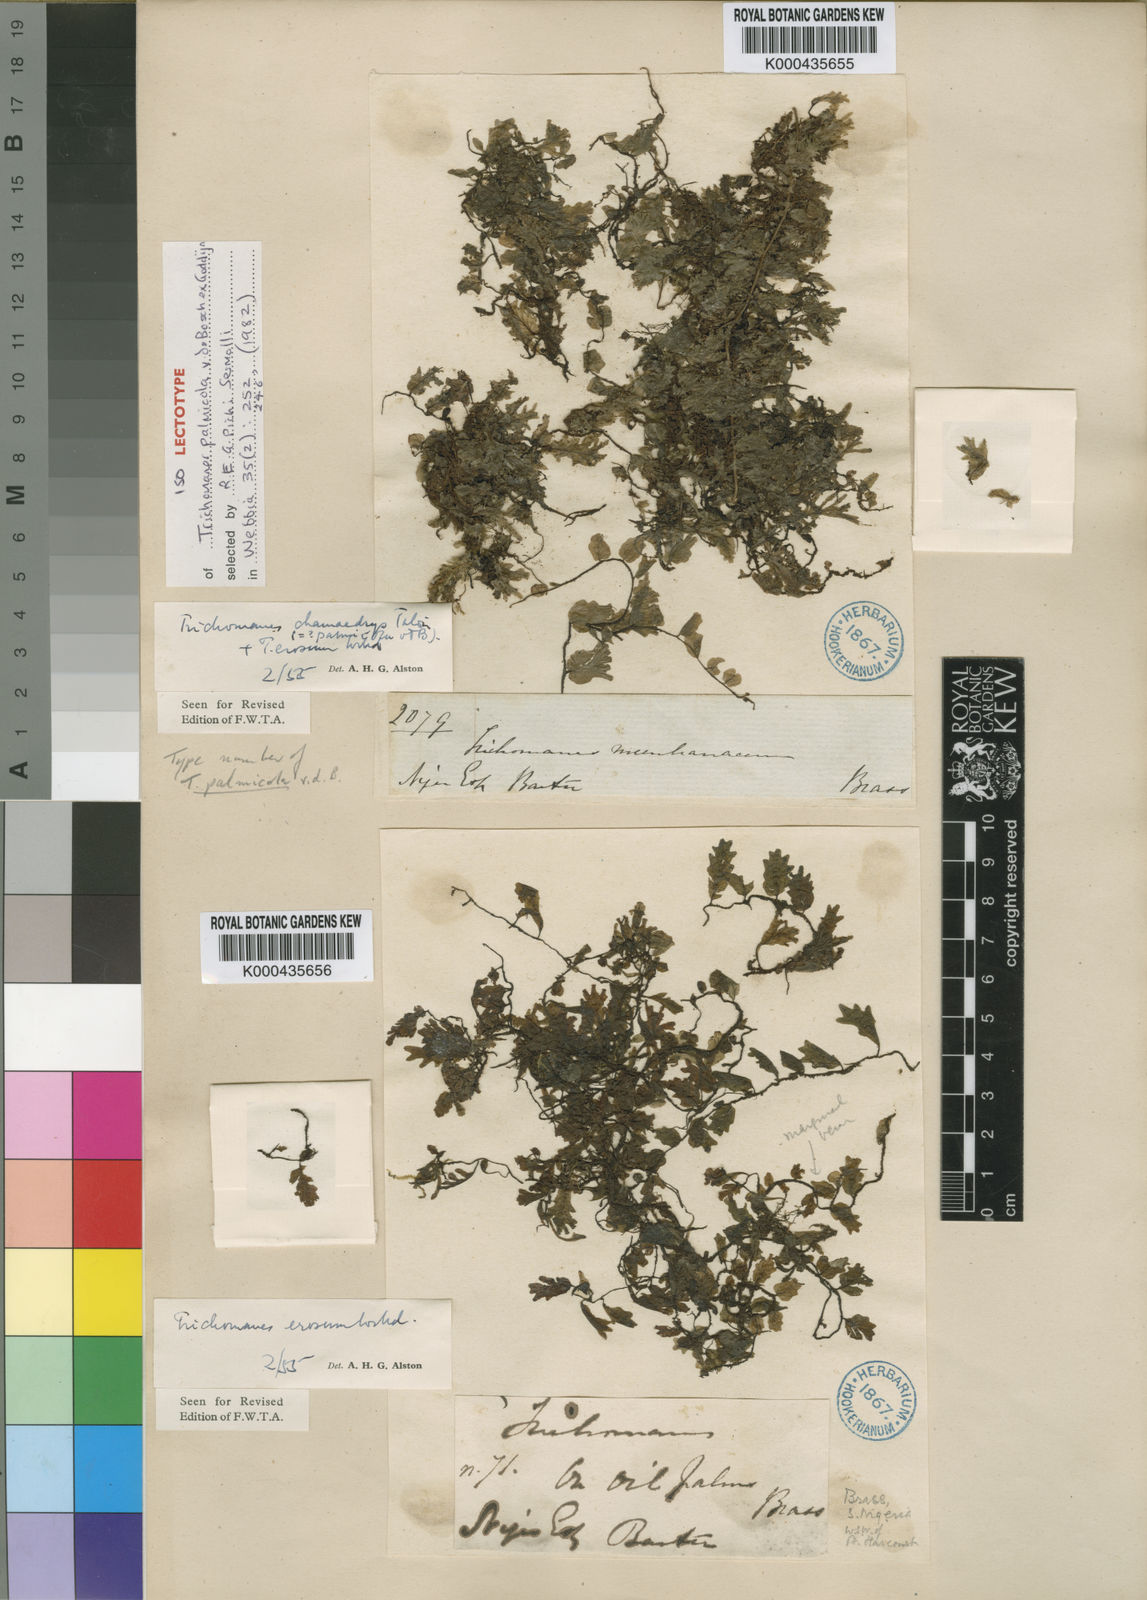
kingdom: Plantae
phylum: Tracheophyta
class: Polypodiopsida
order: Hymenophyllales
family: Hymenophyllaceae
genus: Didymoglossum
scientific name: Didymoglossum erosum
